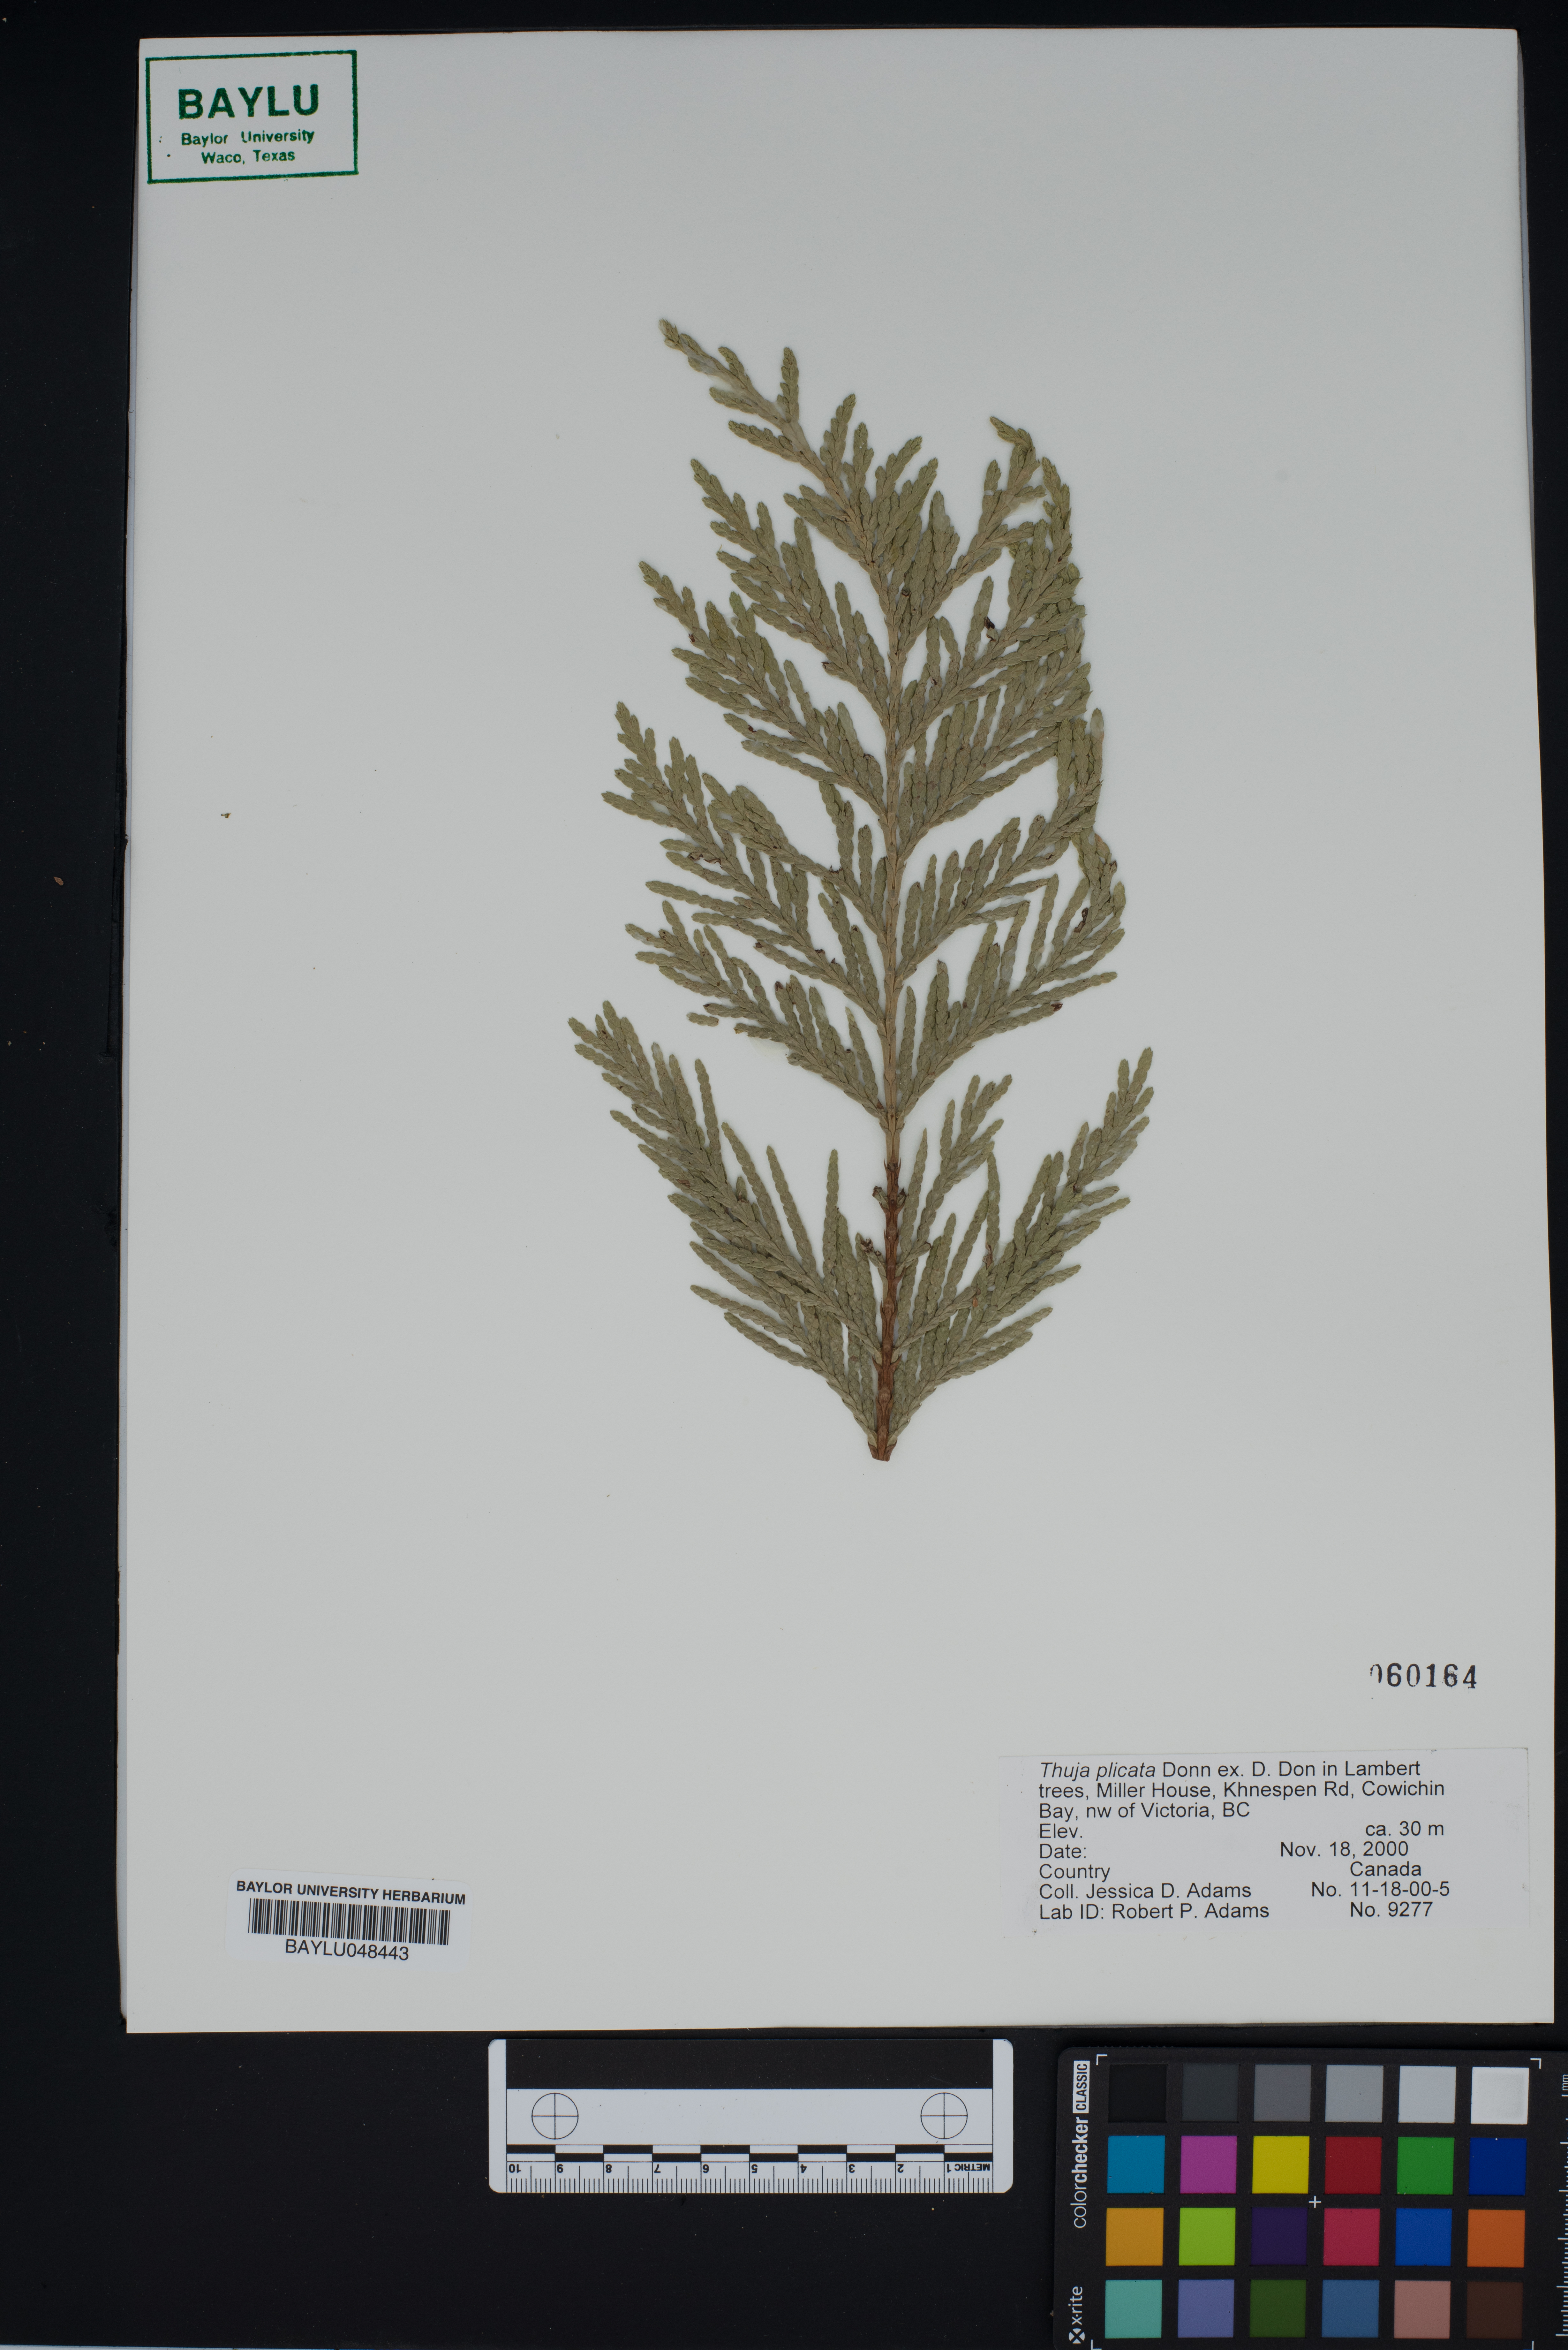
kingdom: Plantae
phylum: Tracheophyta
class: Pinopsida
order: Pinales
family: Cupressaceae
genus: Thuja
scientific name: Thuja plicata
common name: Western red-cedar
